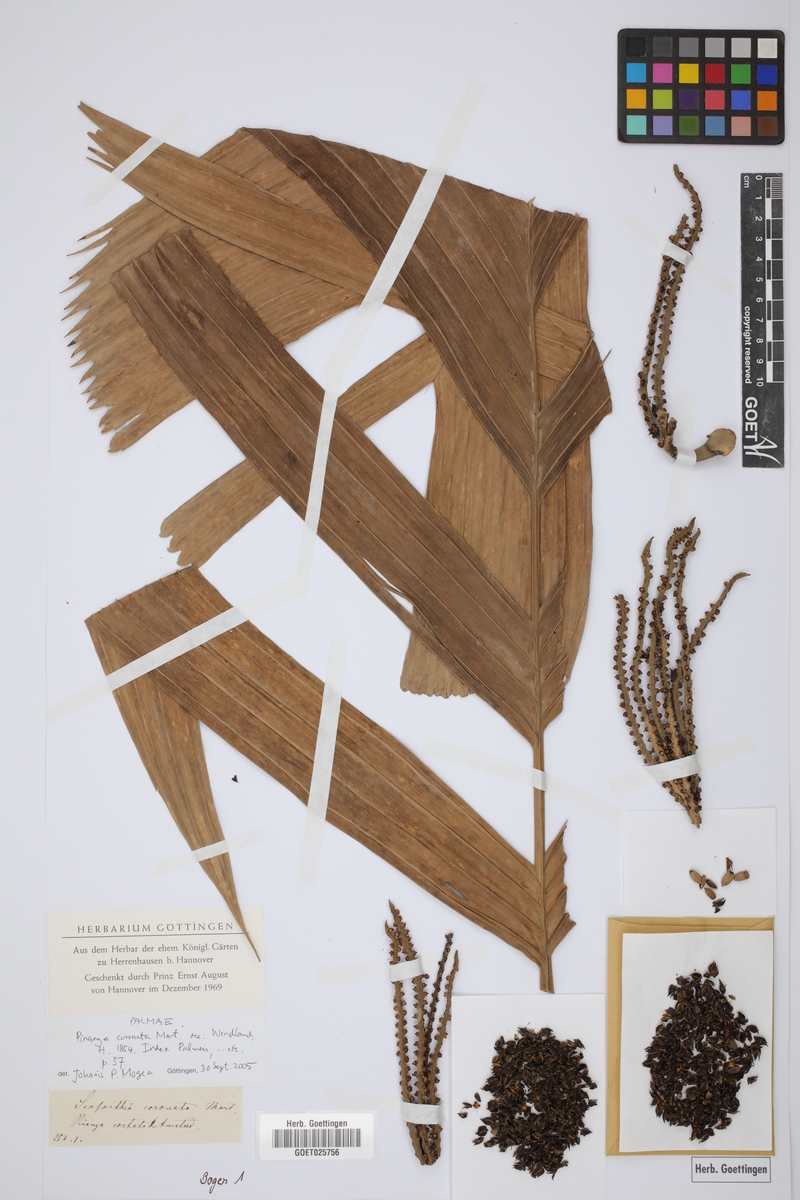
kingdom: Plantae
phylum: Tracheophyta
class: Liliopsida
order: Arecales
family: Arecaceae
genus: Pinanga
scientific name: Pinanga coronata
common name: Ivory cane palm
